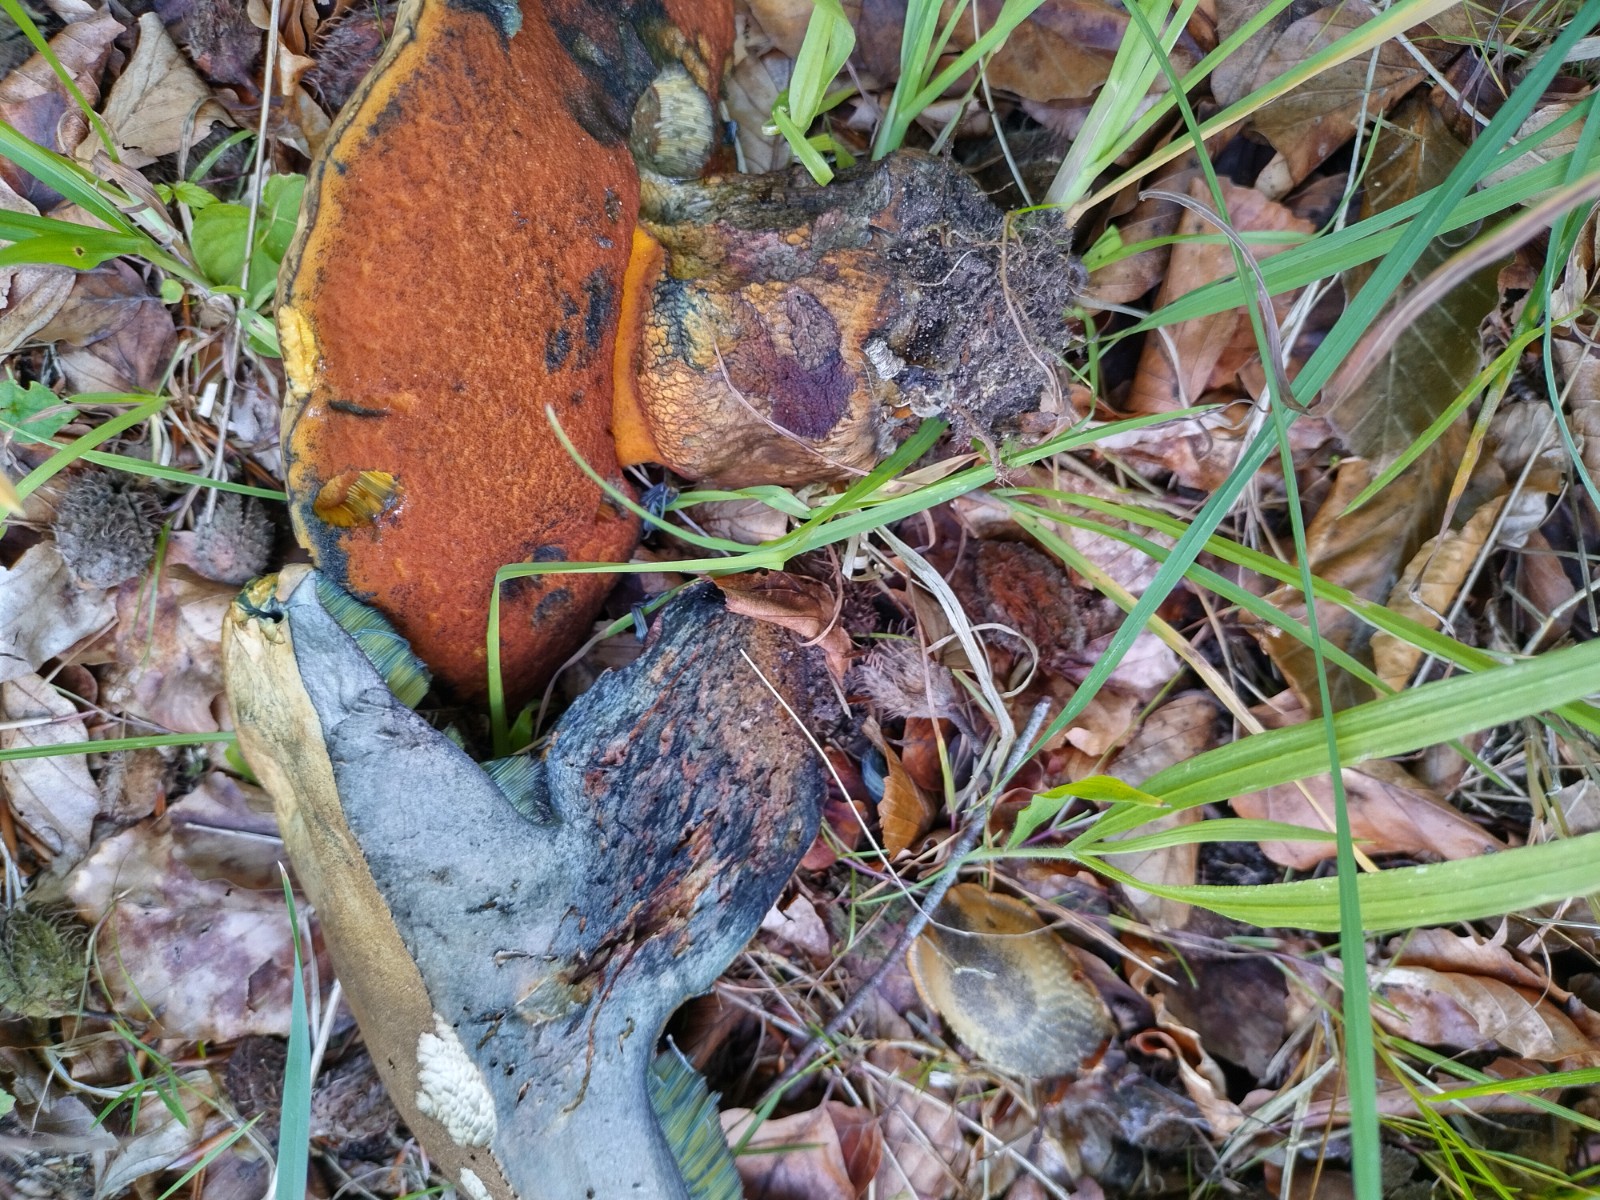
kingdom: Fungi
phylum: Basidiomycota
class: Agaricomycetes
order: Boletales
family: Boletaceae
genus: Suillellus
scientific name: Suillellus luridus
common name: netstokket indigorørhat
